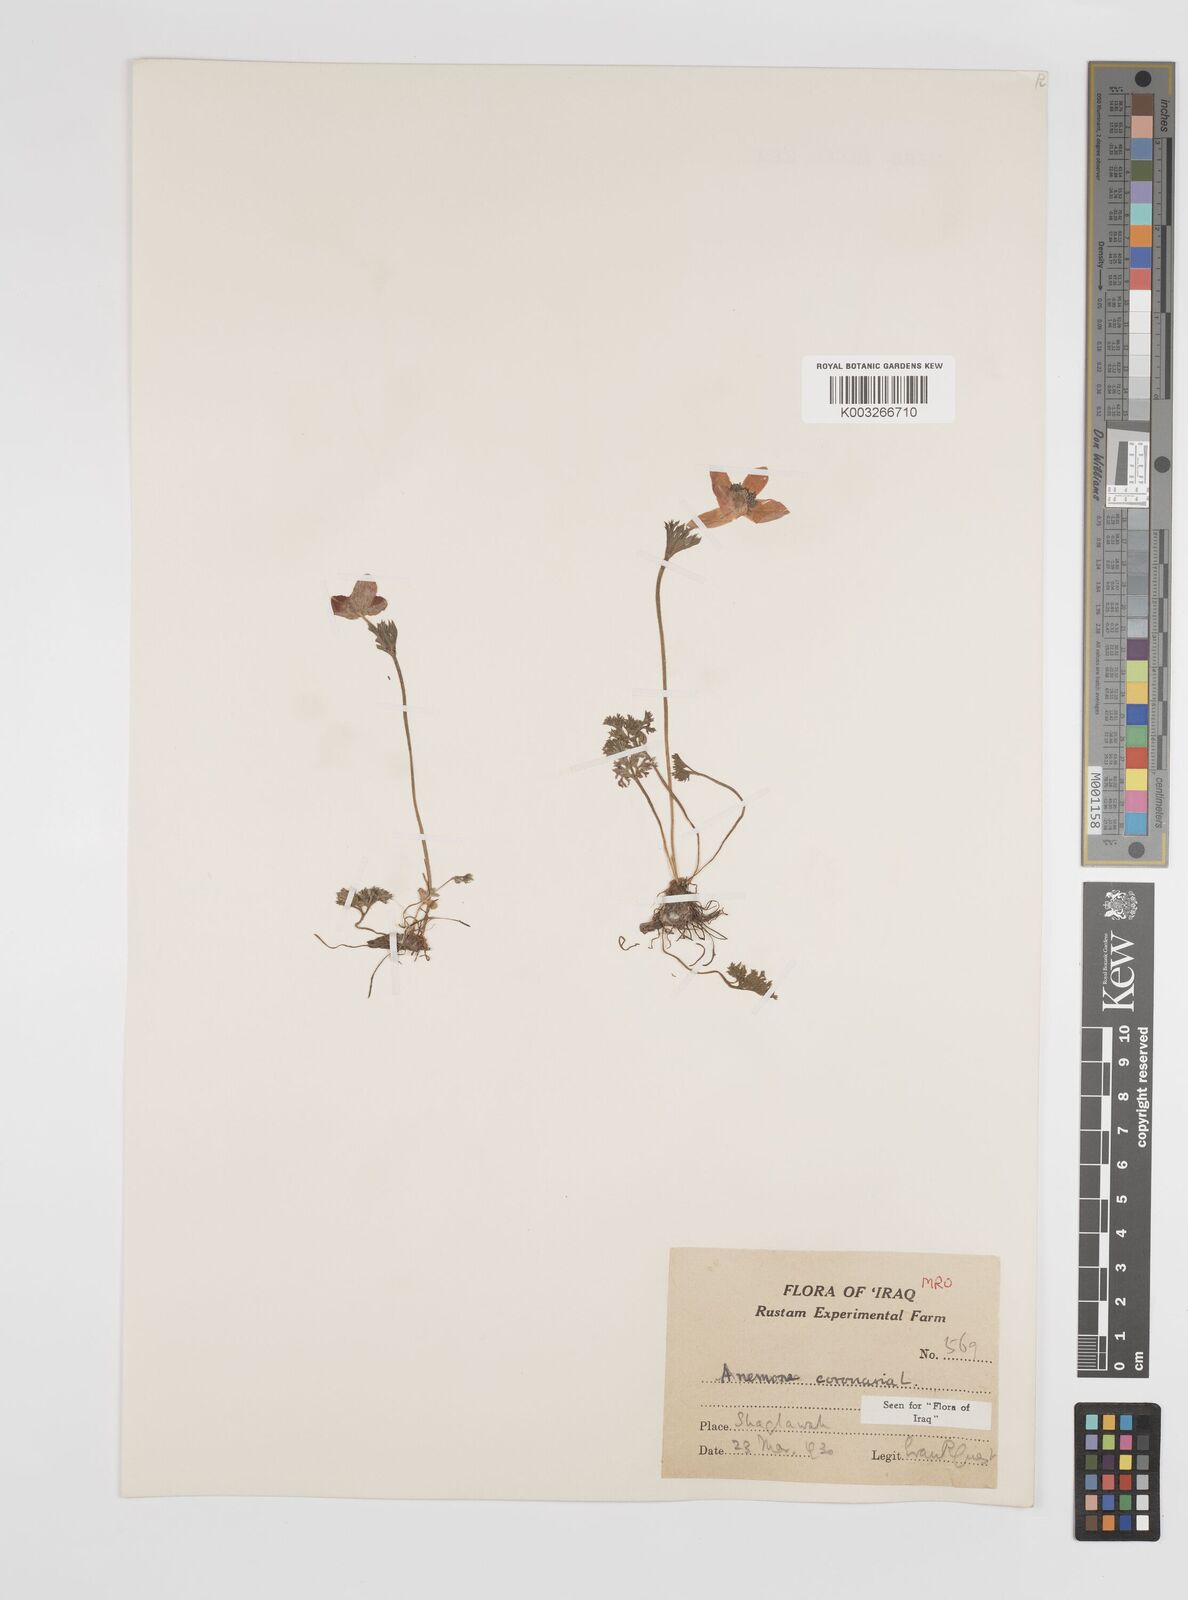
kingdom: Plantae
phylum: Tracheophyta
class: Magnoliopsida
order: Ranunculales
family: Ranunculaceae
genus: Anemone
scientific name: Anemone coronaria
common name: Poppy anemone
